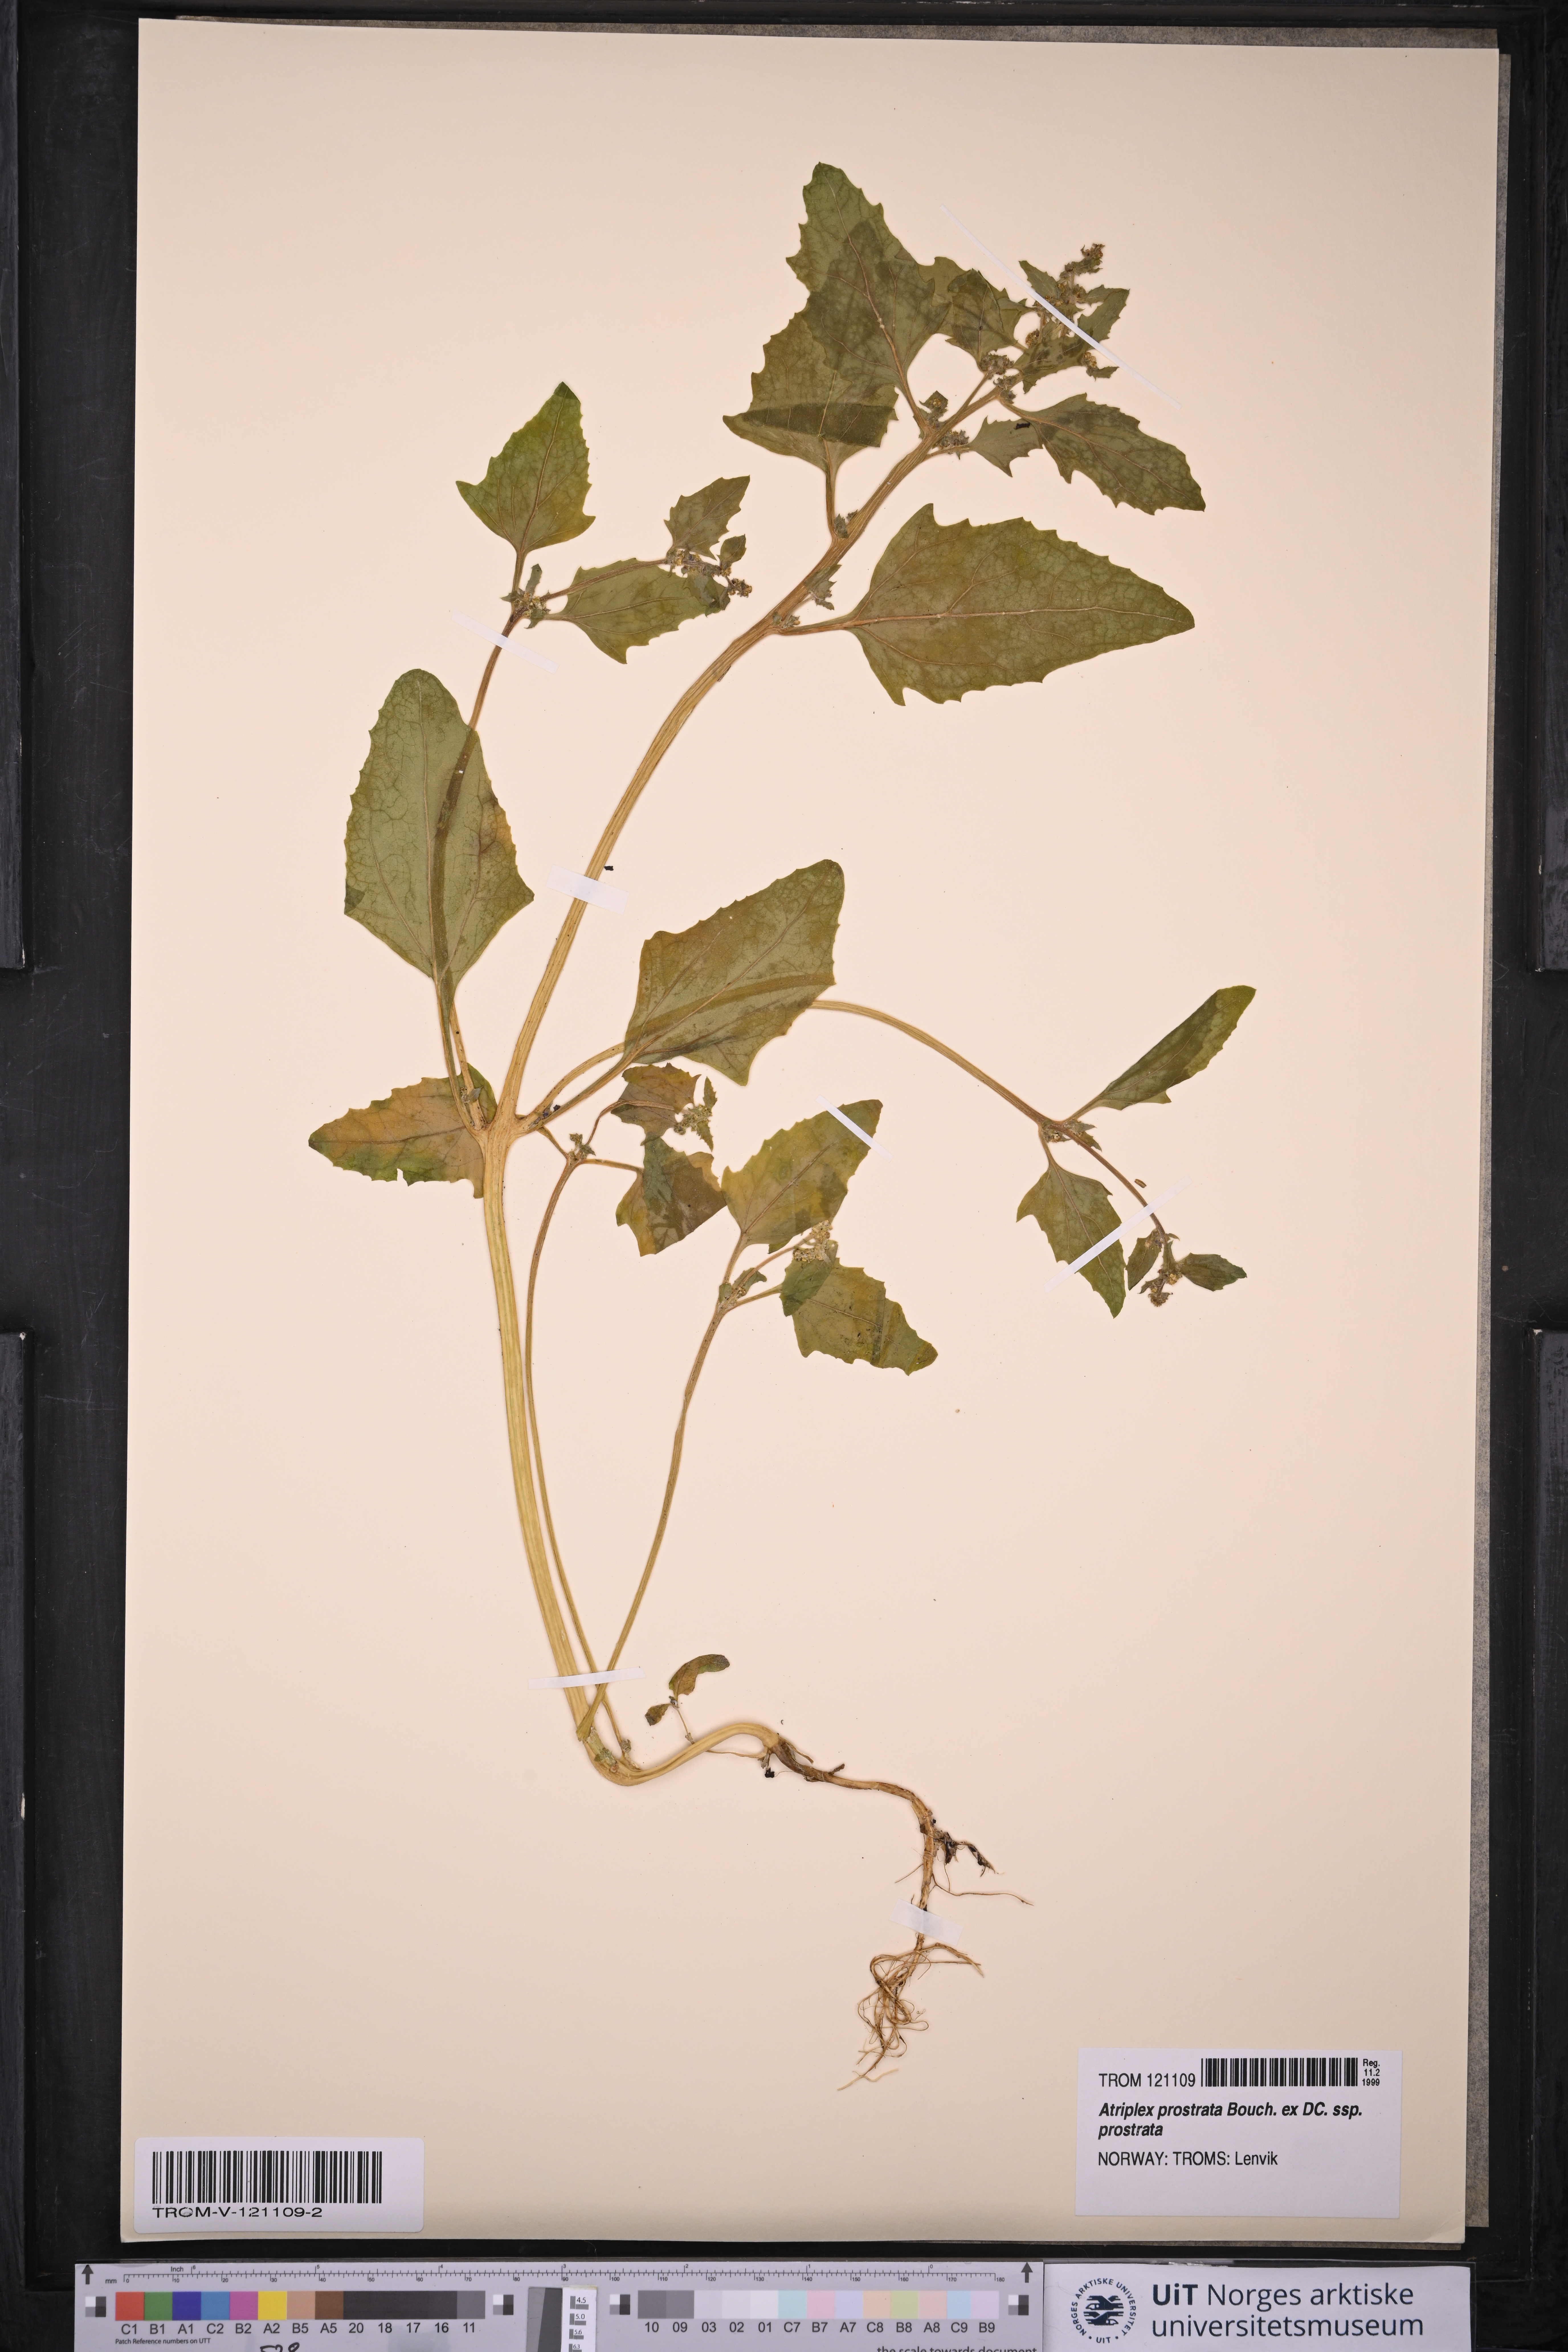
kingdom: Plantae
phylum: Tracheophyta
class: Magnoliopsida
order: Caryophyllales
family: Amaranthaceae
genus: Atriplex
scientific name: Atriplex prostrata
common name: Spear-leaved orache
